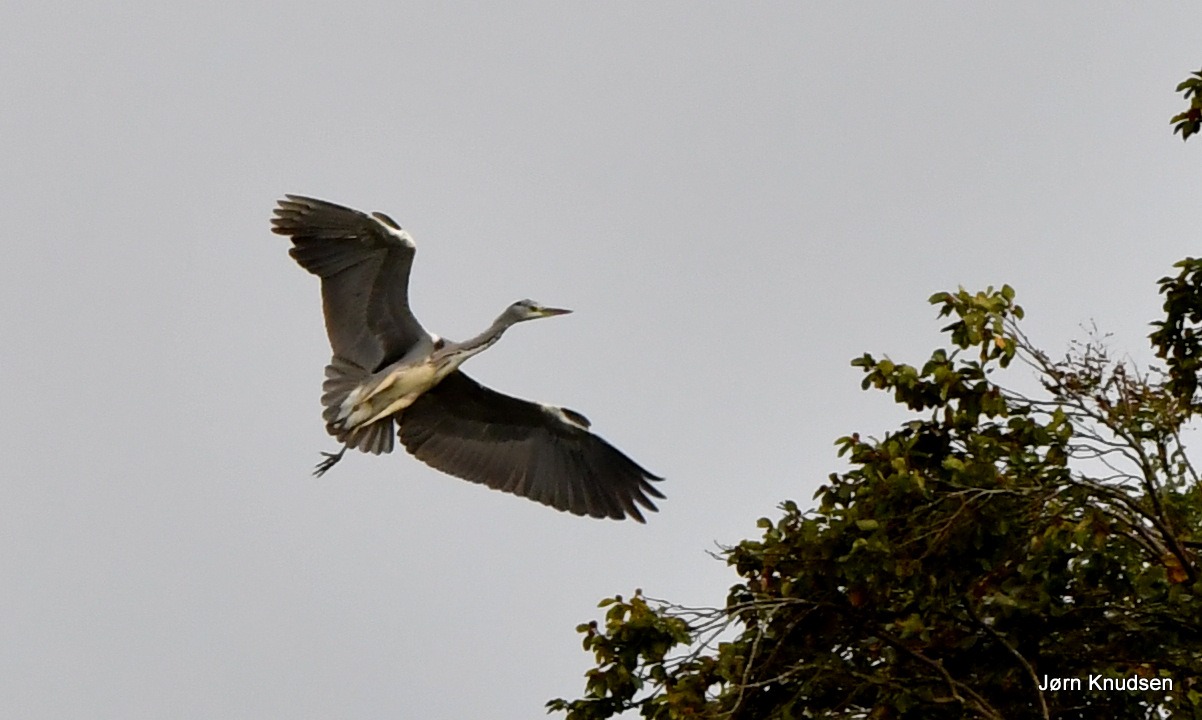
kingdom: Animalia
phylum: Chordata
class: Aves
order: Pelecaniformes
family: Ardeidae
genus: Ardea
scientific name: Ardea cinerea
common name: Fiskehejre
